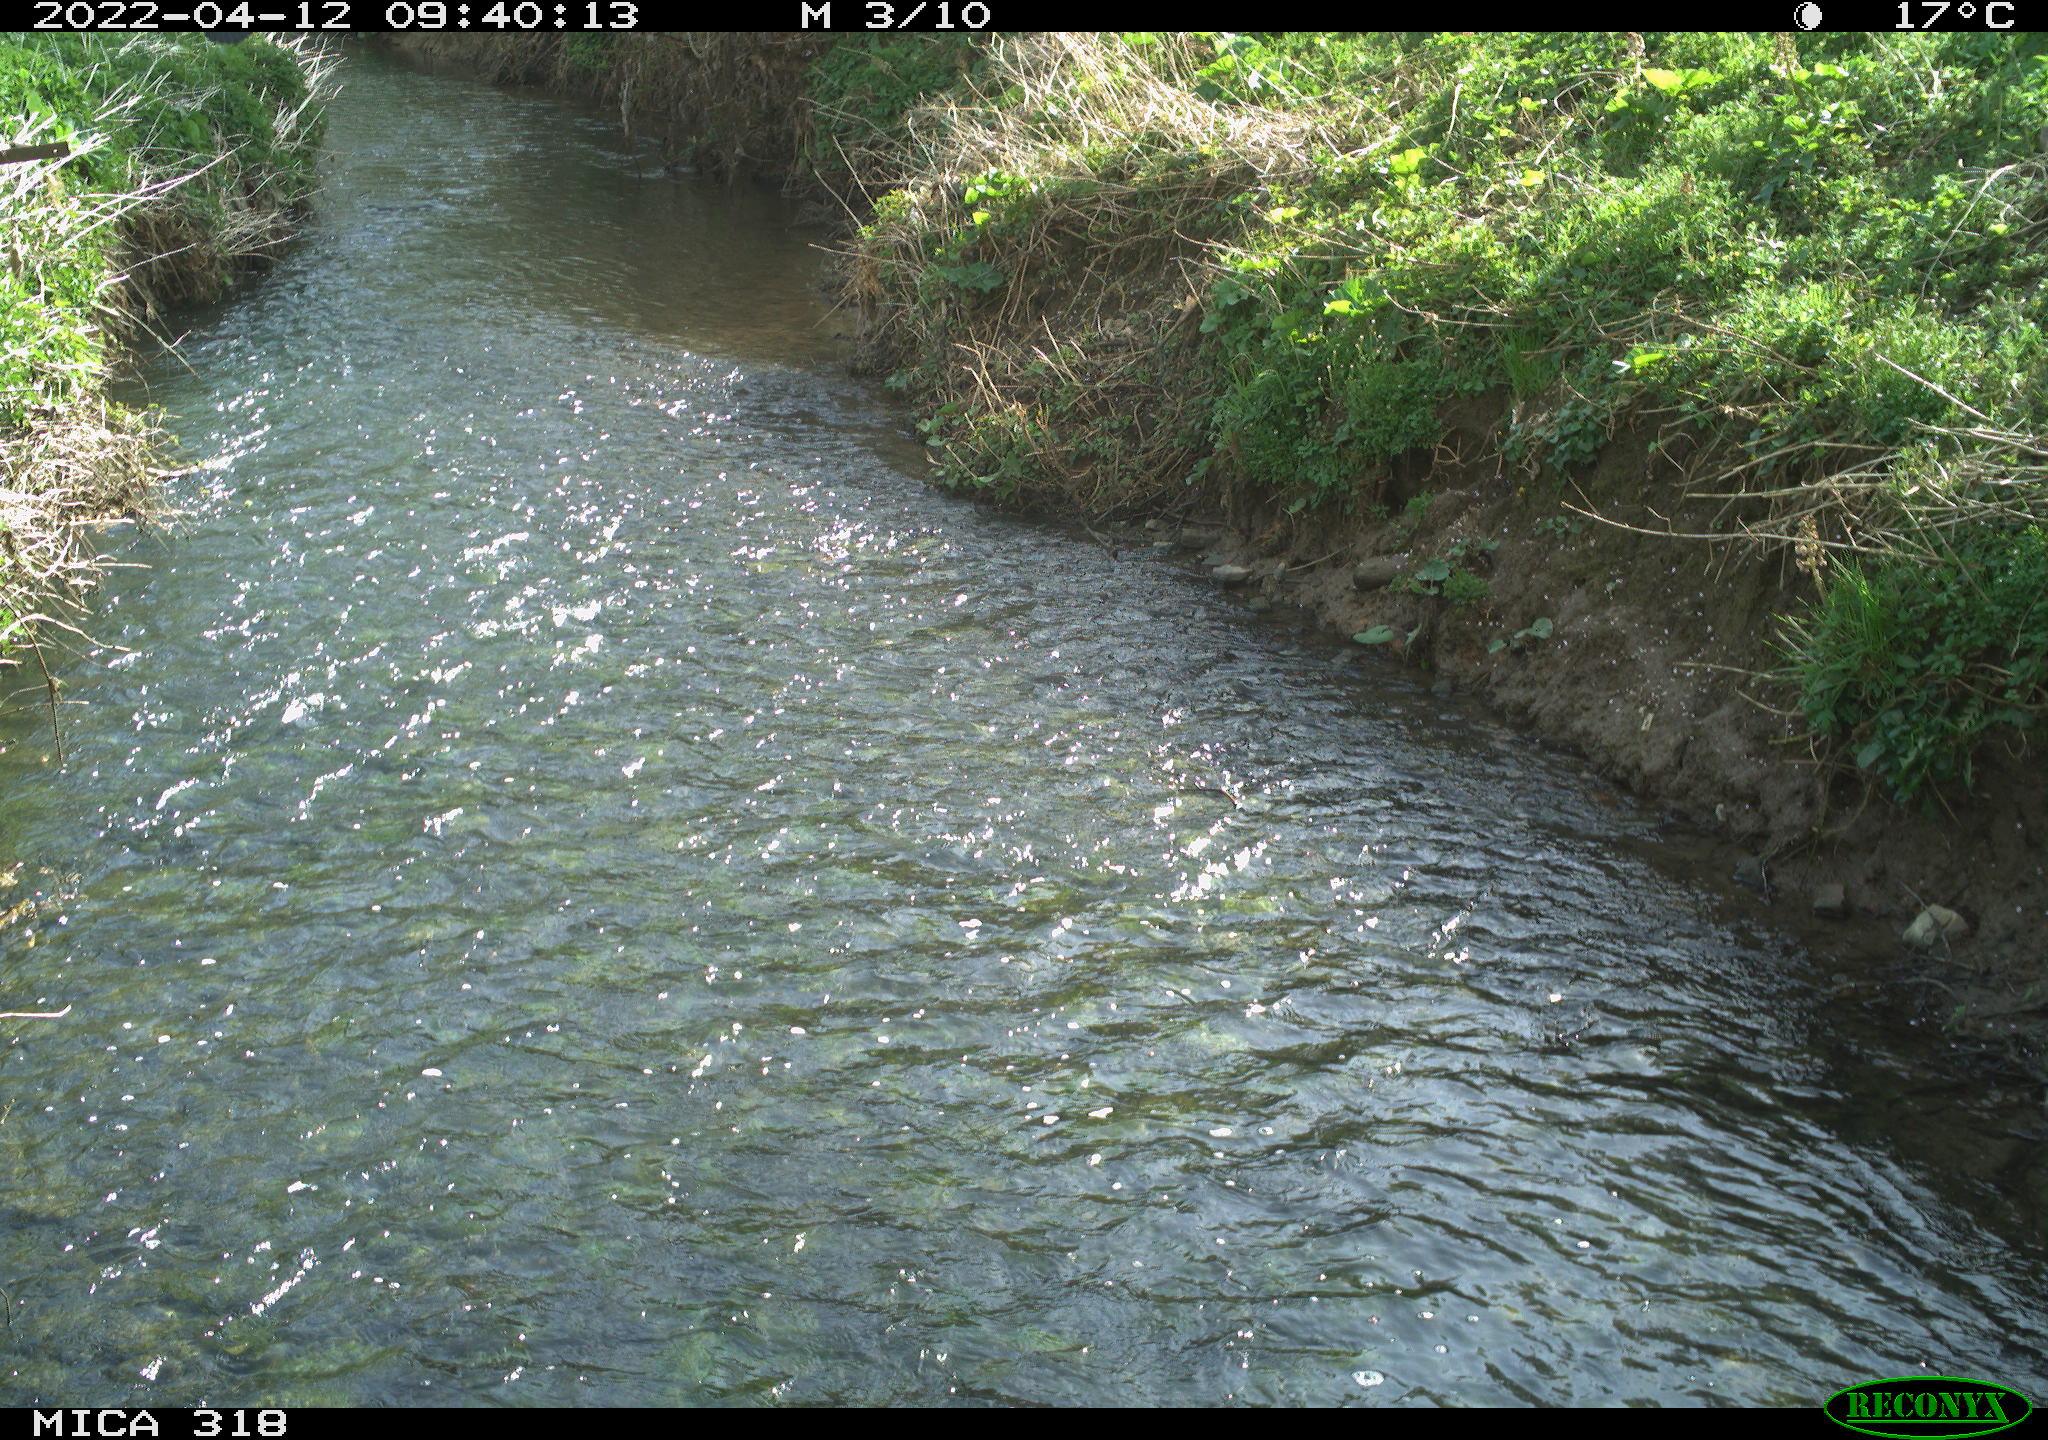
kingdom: Animalia
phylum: Chordata
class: Aves
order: Passeriformes
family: Corvidae
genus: Corvus
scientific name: Corvus corone
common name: Carrion crow
